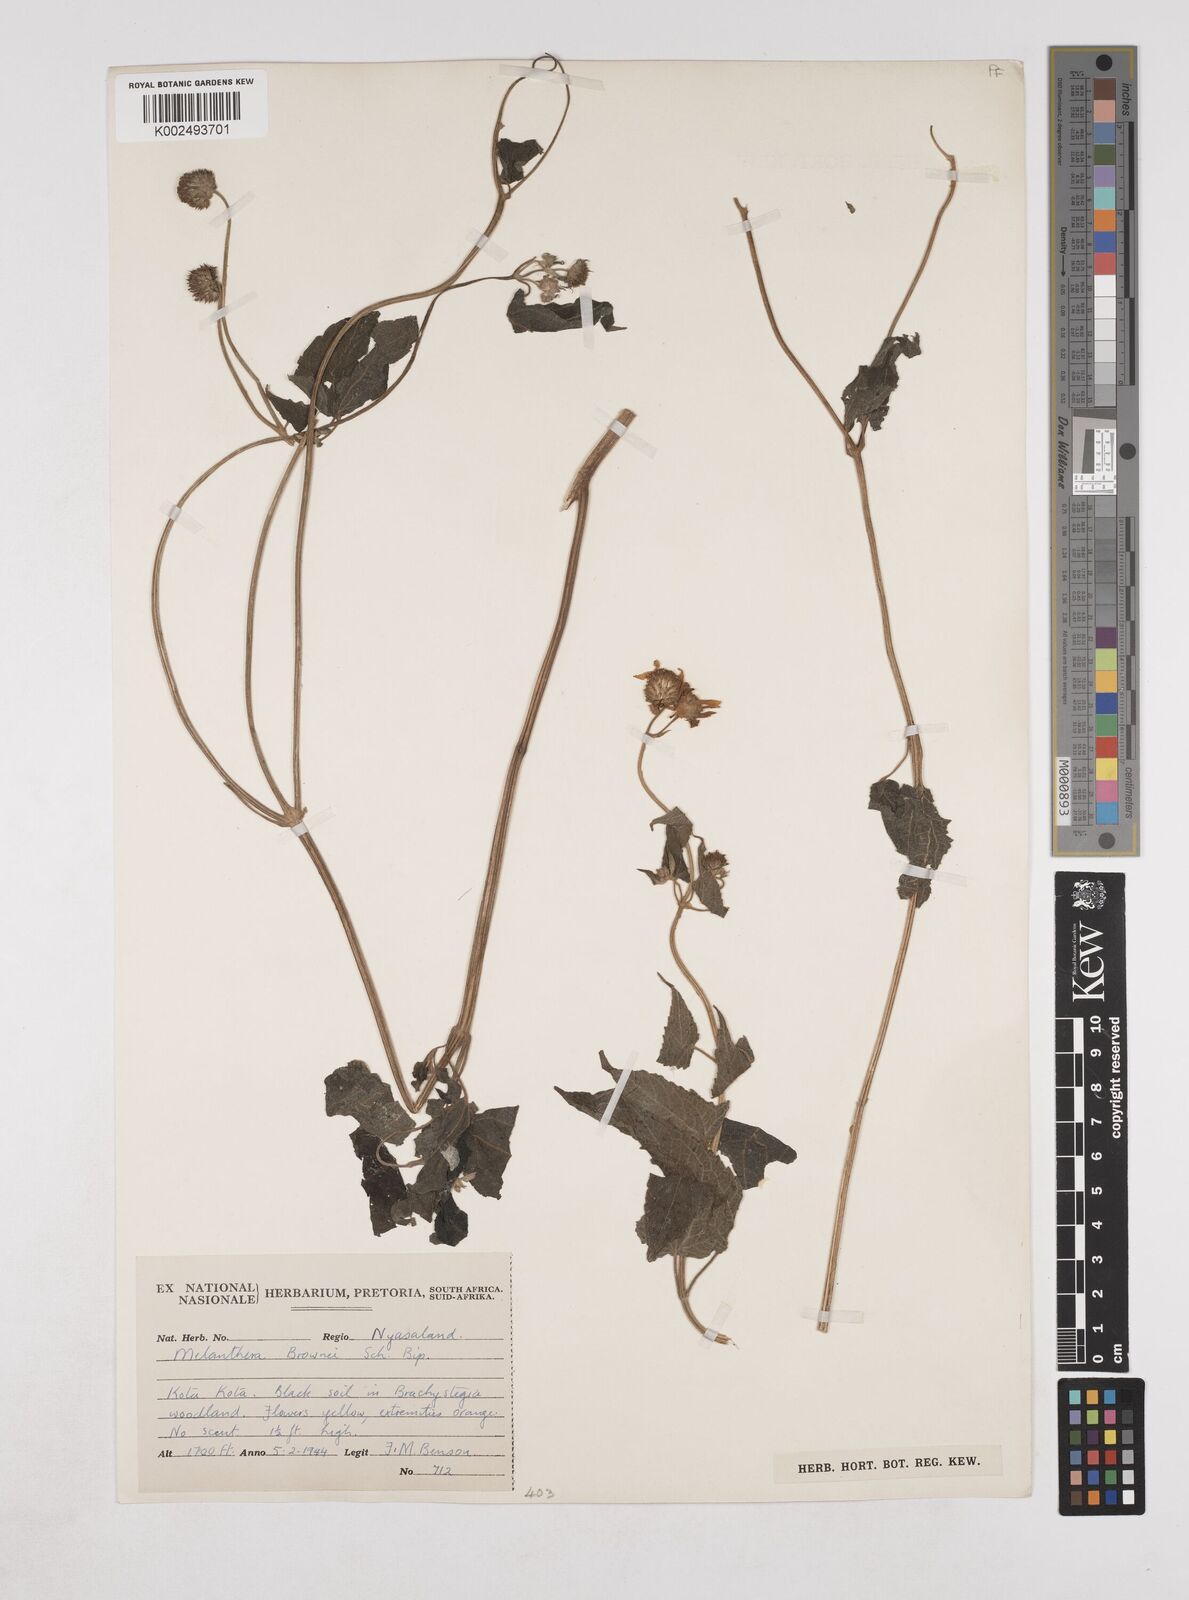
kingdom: Plantae
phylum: Tracheophyta
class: Magnoliopsida
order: Asterales
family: Asteraceae
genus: Lipotriche
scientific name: Lipotriche scandens
